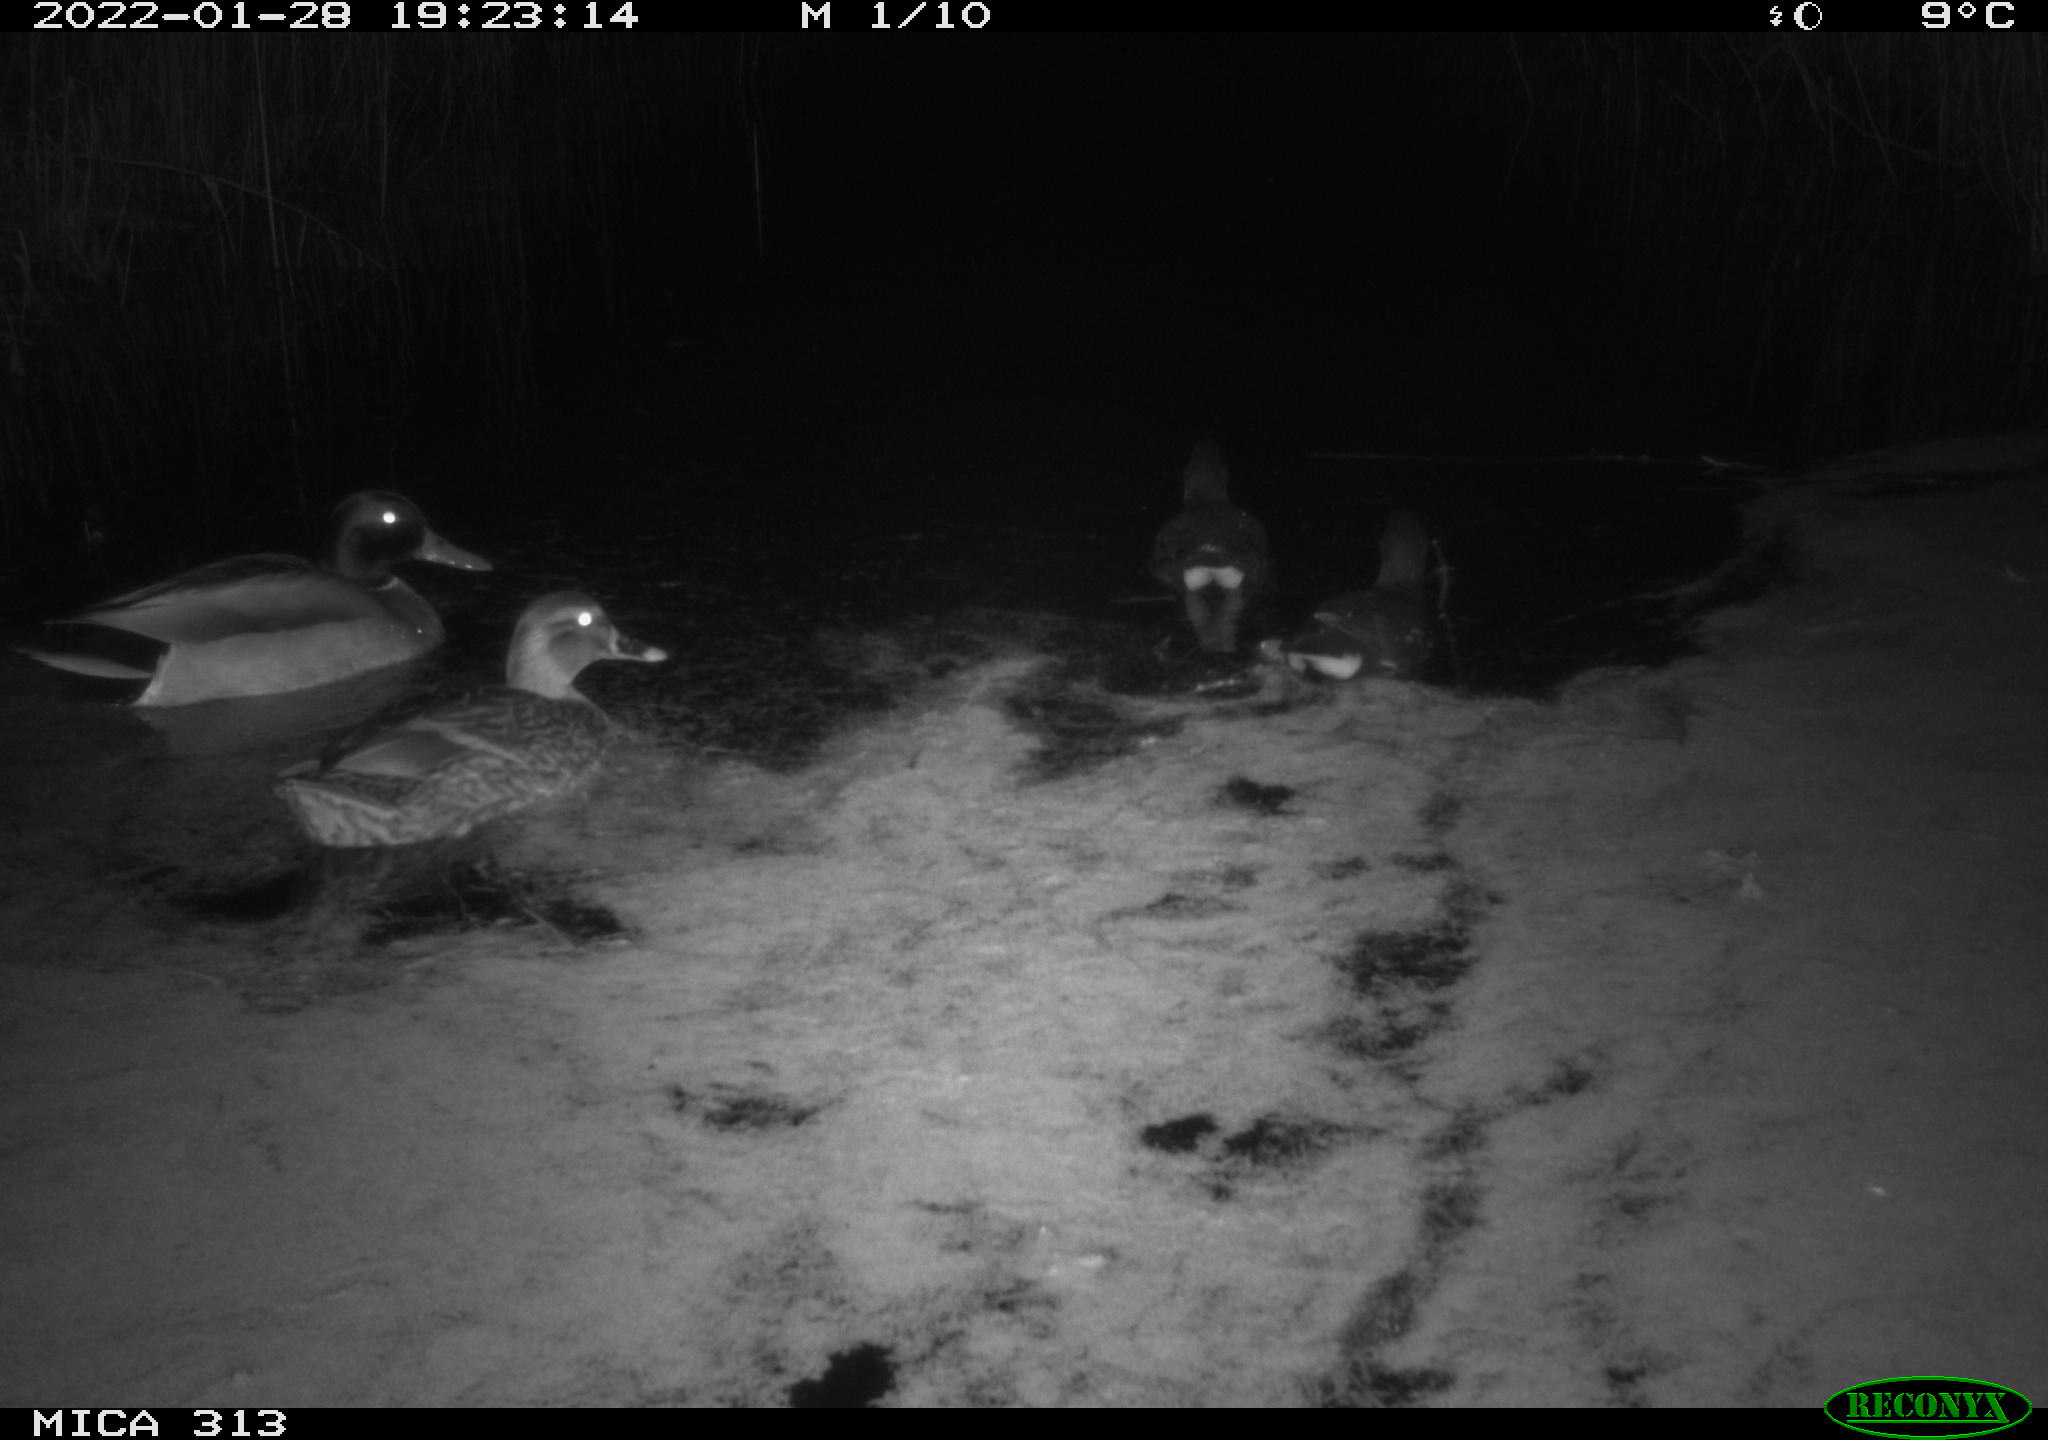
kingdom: Animalia
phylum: Chordata
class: Aves
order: Anseriformes
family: Anatidae
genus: Anas
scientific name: Anas
